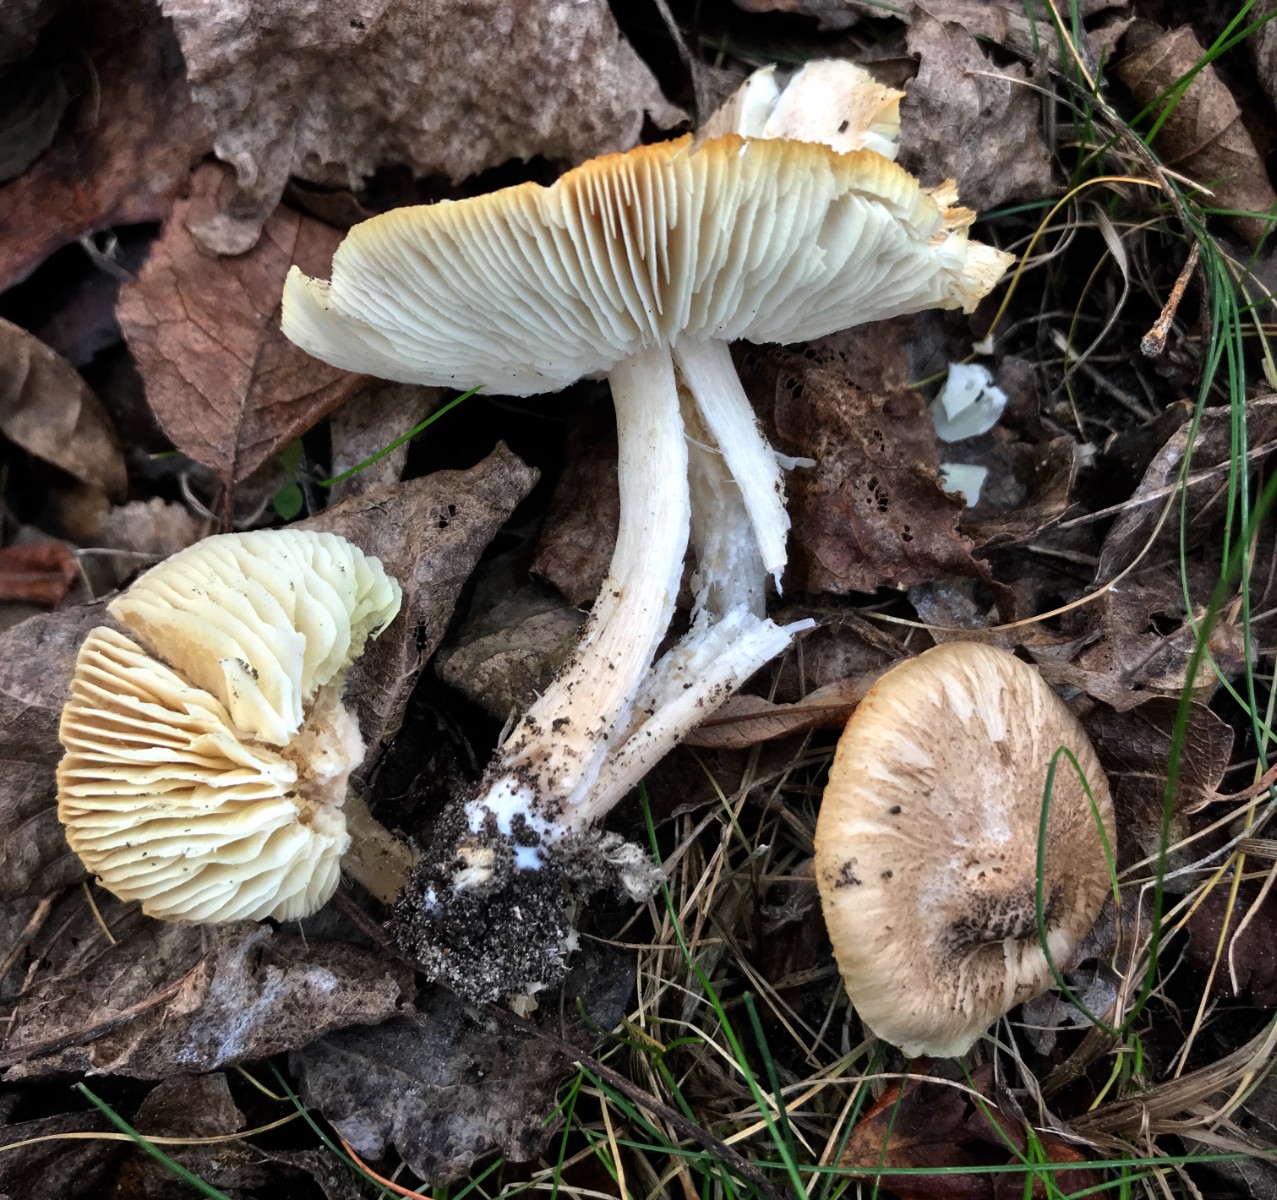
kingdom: Fungi
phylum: Basidiomycota
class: Agaricomycetes
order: Agaricales
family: Tricholomataceae
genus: Tricholoma
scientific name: Tricholoma scalpturatum
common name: gulplettet ridderhat
